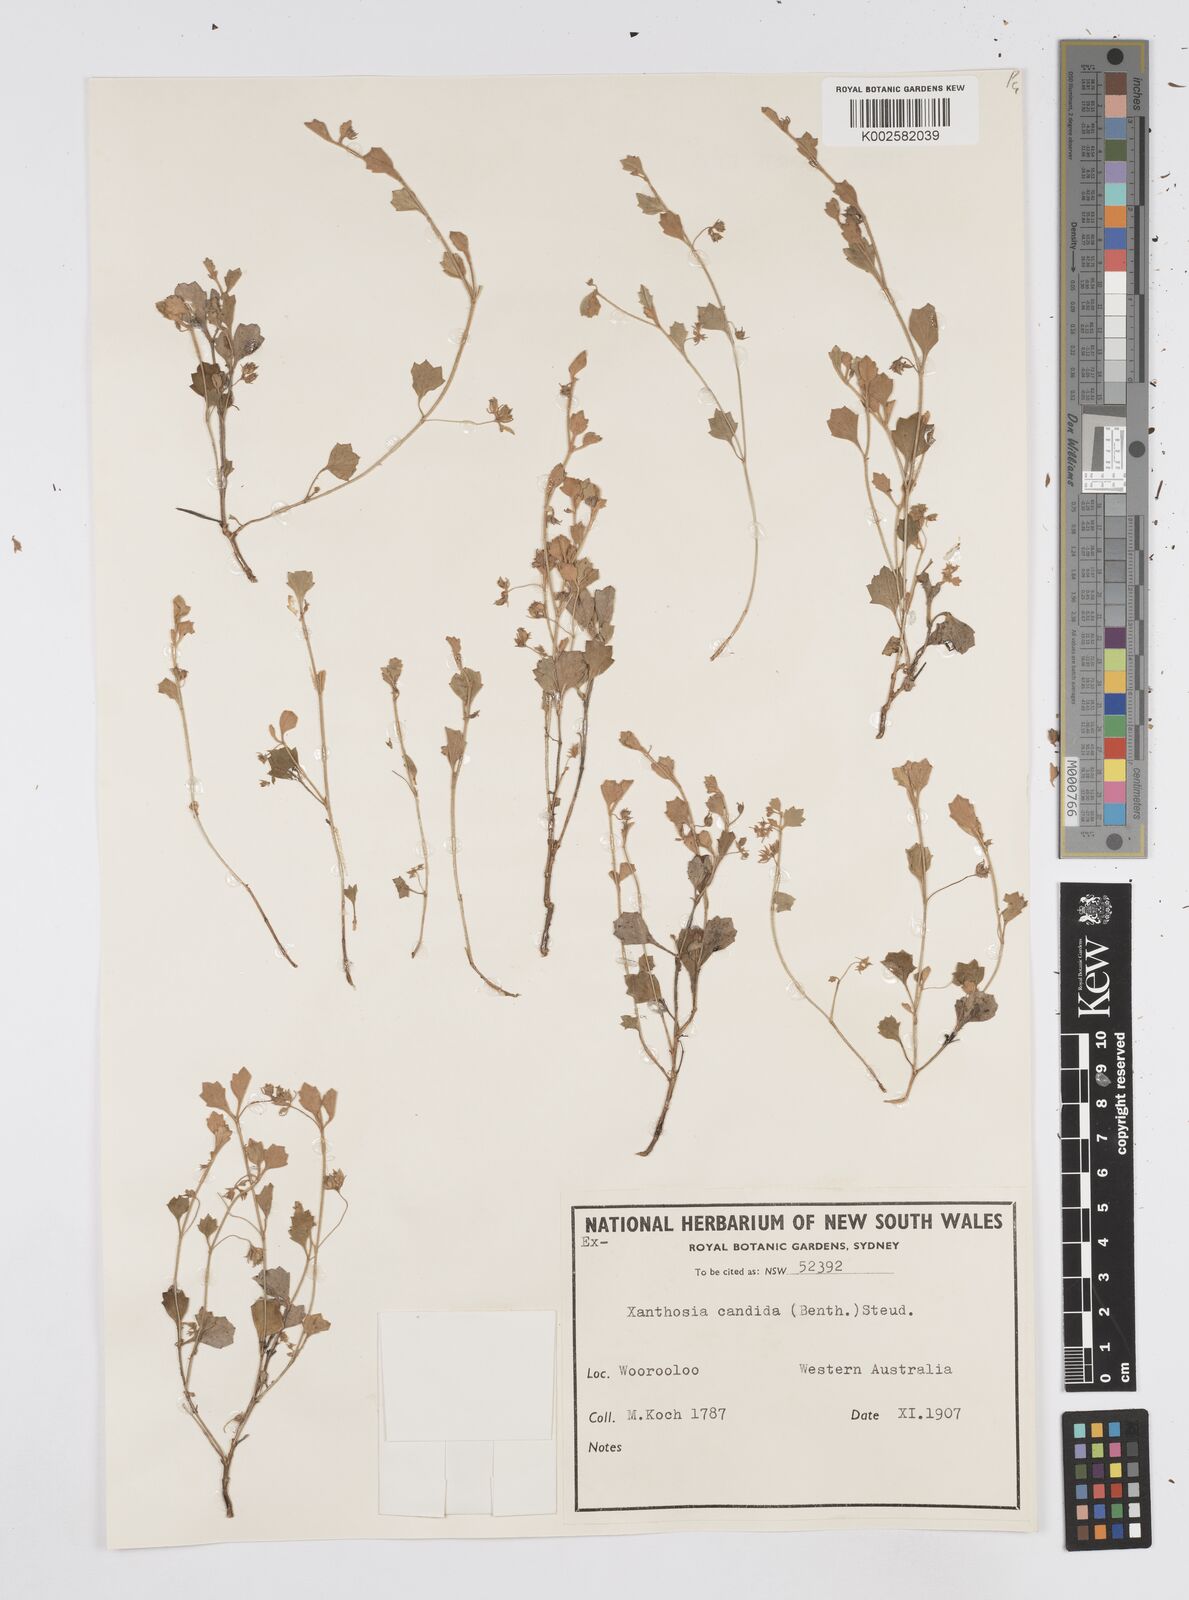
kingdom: Plantae
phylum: Tracheophyta
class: Magnoliopsida
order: Apiales
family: Apiaceae
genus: Xanthosia
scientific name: Xanthosia candida
